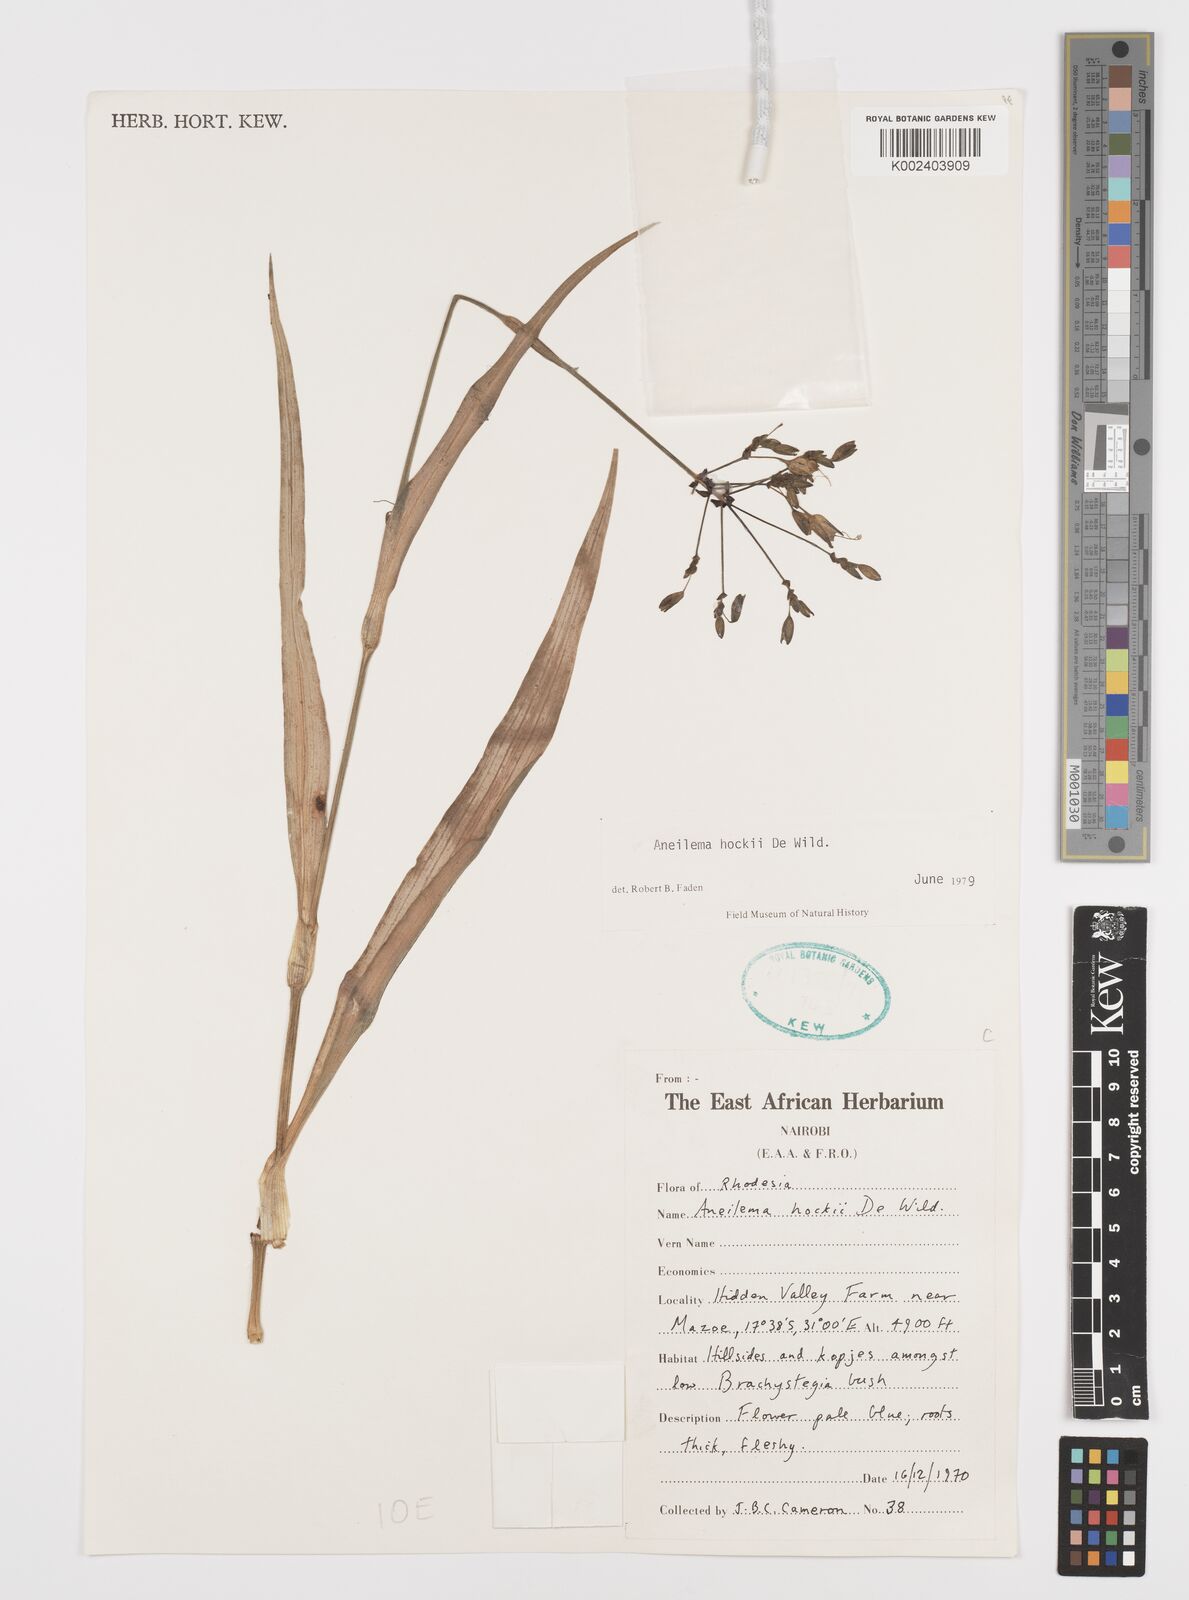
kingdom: Plantae
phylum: Tracheophyta
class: Liliopsida
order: Commelinales
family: Commelinaceae
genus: Aneilema
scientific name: Aneilema hockii
